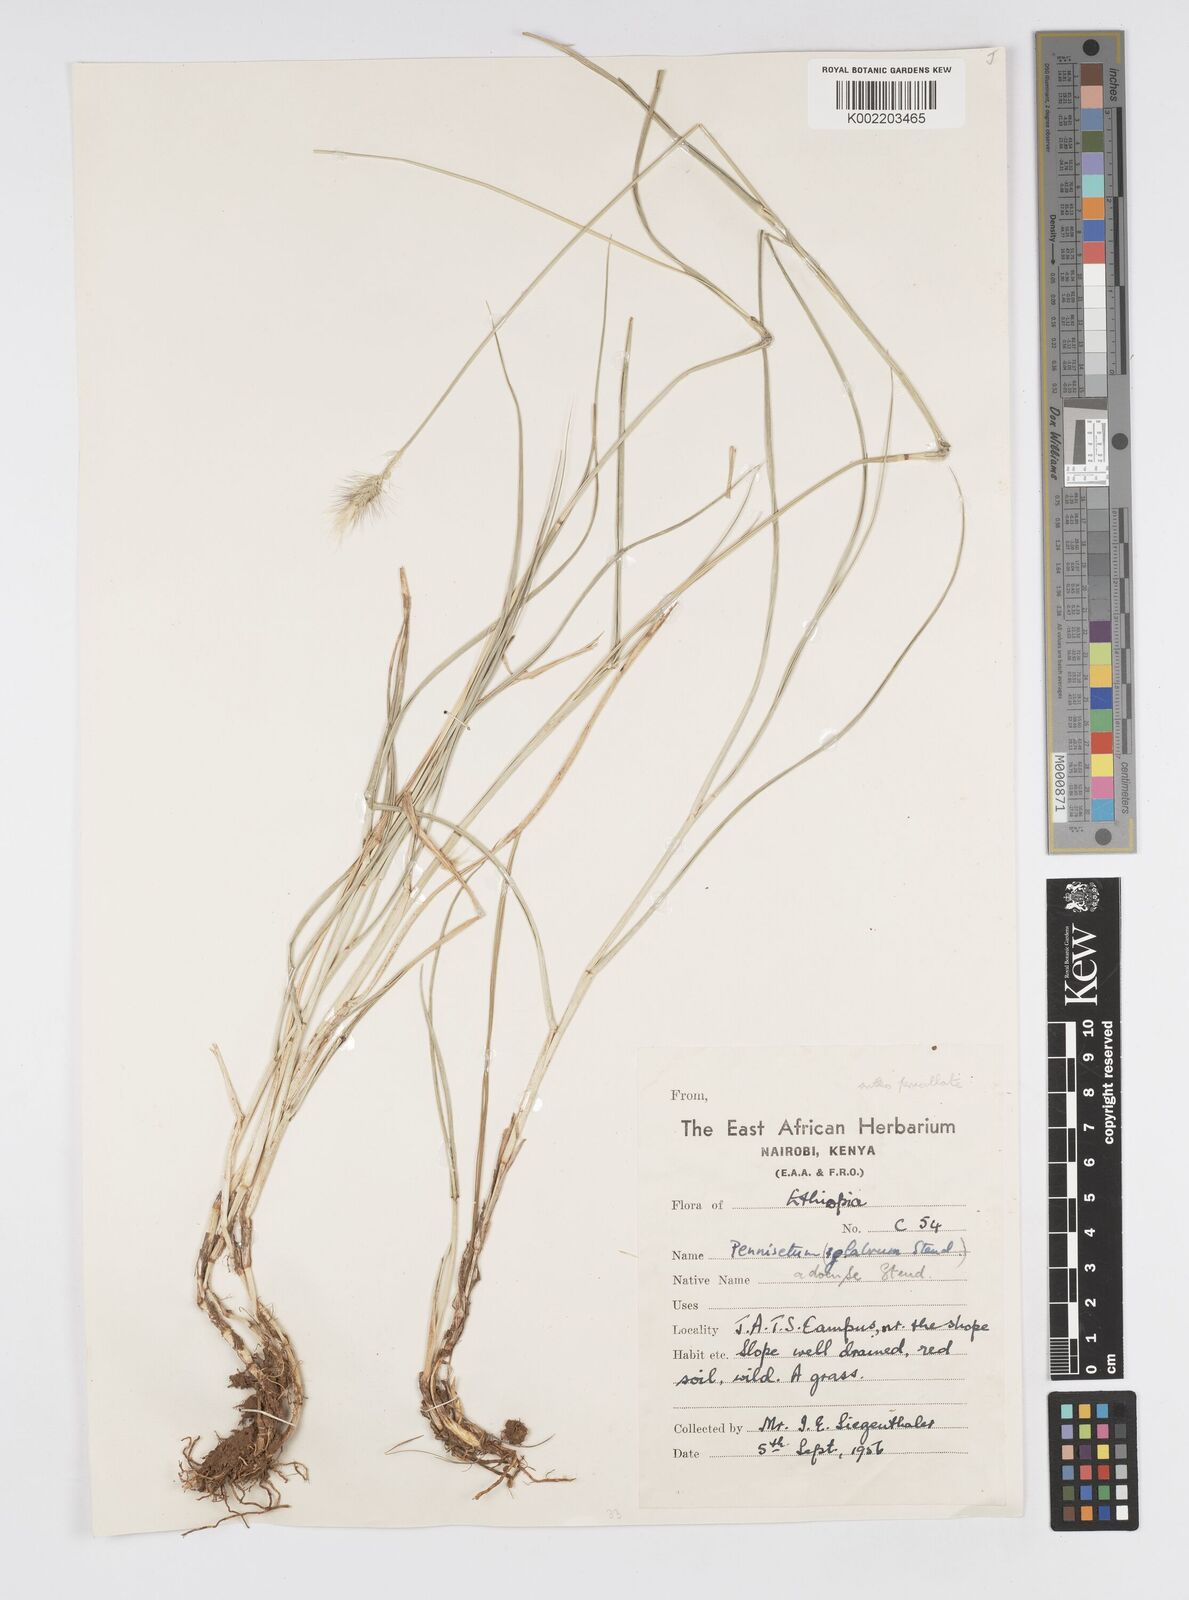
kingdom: Plantae
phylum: Tracheophyta
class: Liliopsida
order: Poales
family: Poaceae
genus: Cenchrus
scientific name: Cenchrus geniculatus
